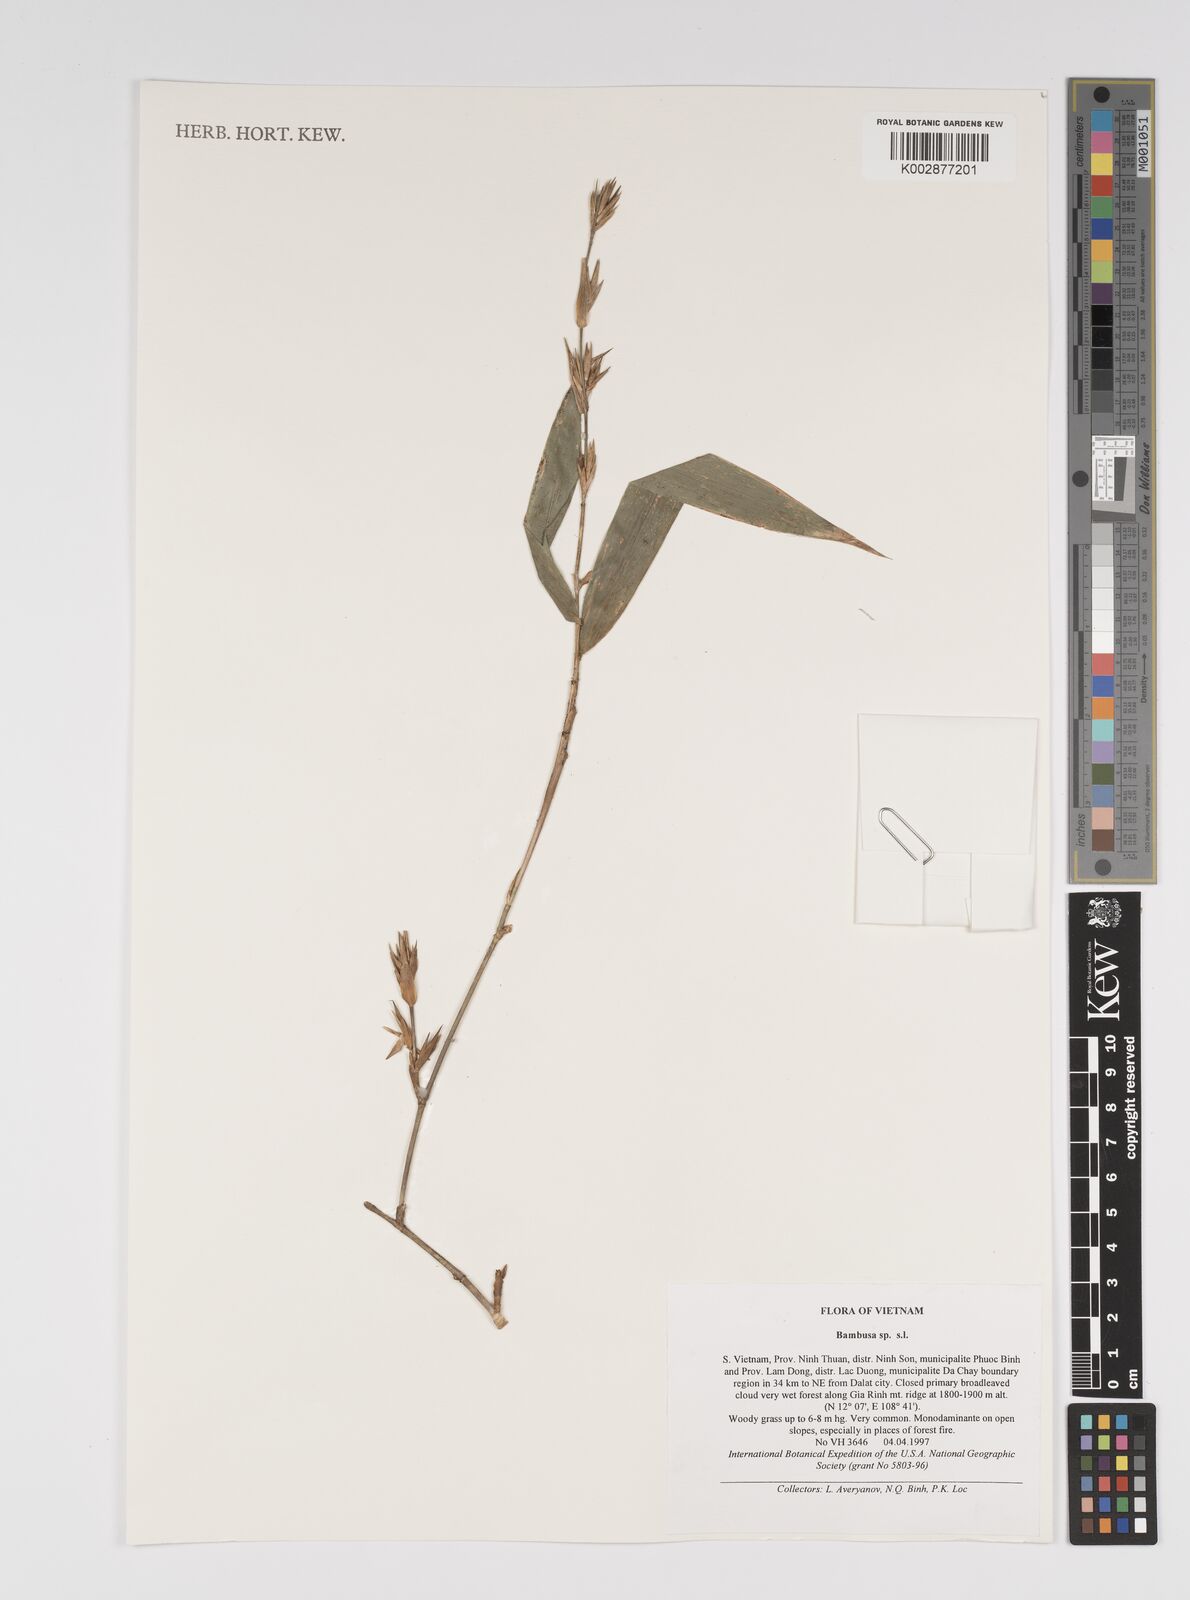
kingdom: Plantae
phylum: Tracheophyta
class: Liliopsida
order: Poales
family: Poaceae
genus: Bambusa
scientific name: Bambusa
